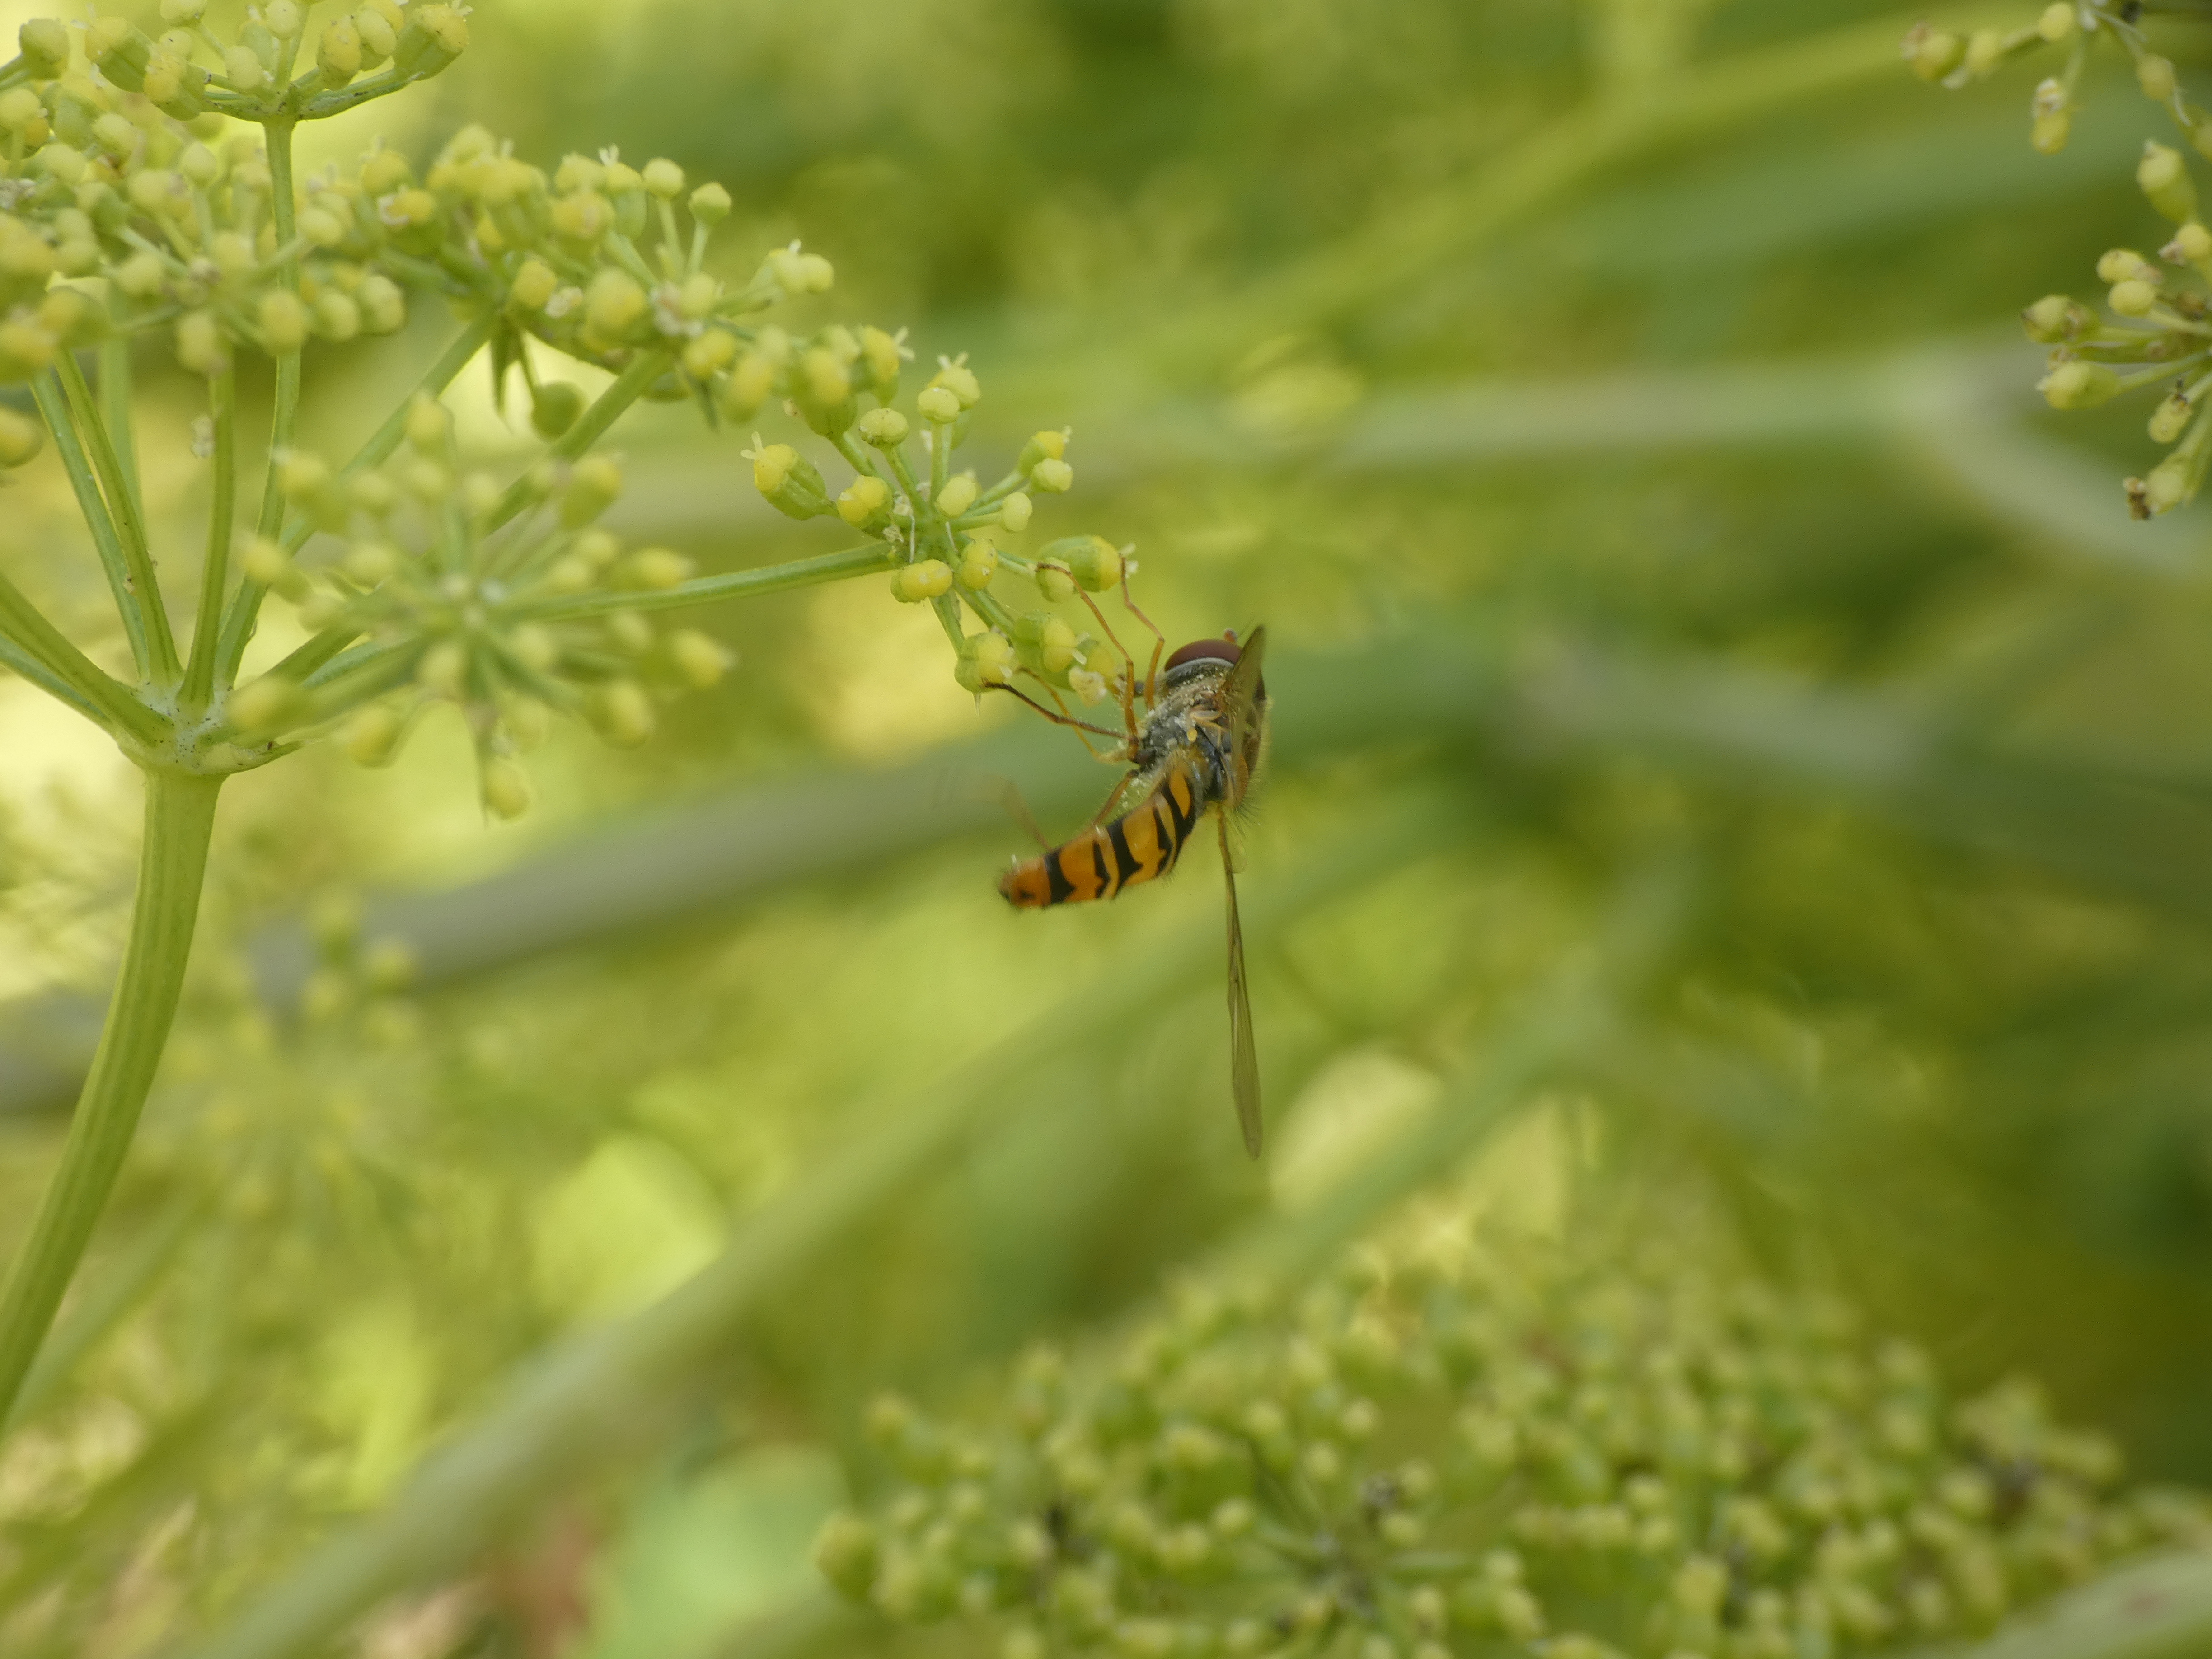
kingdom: Animalia
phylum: Arthropoda
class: Insecta
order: Diptera
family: Syrphidae
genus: Episyrphus
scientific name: Episyrphus balteatus
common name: Dobbeltbåndet svirreflue
